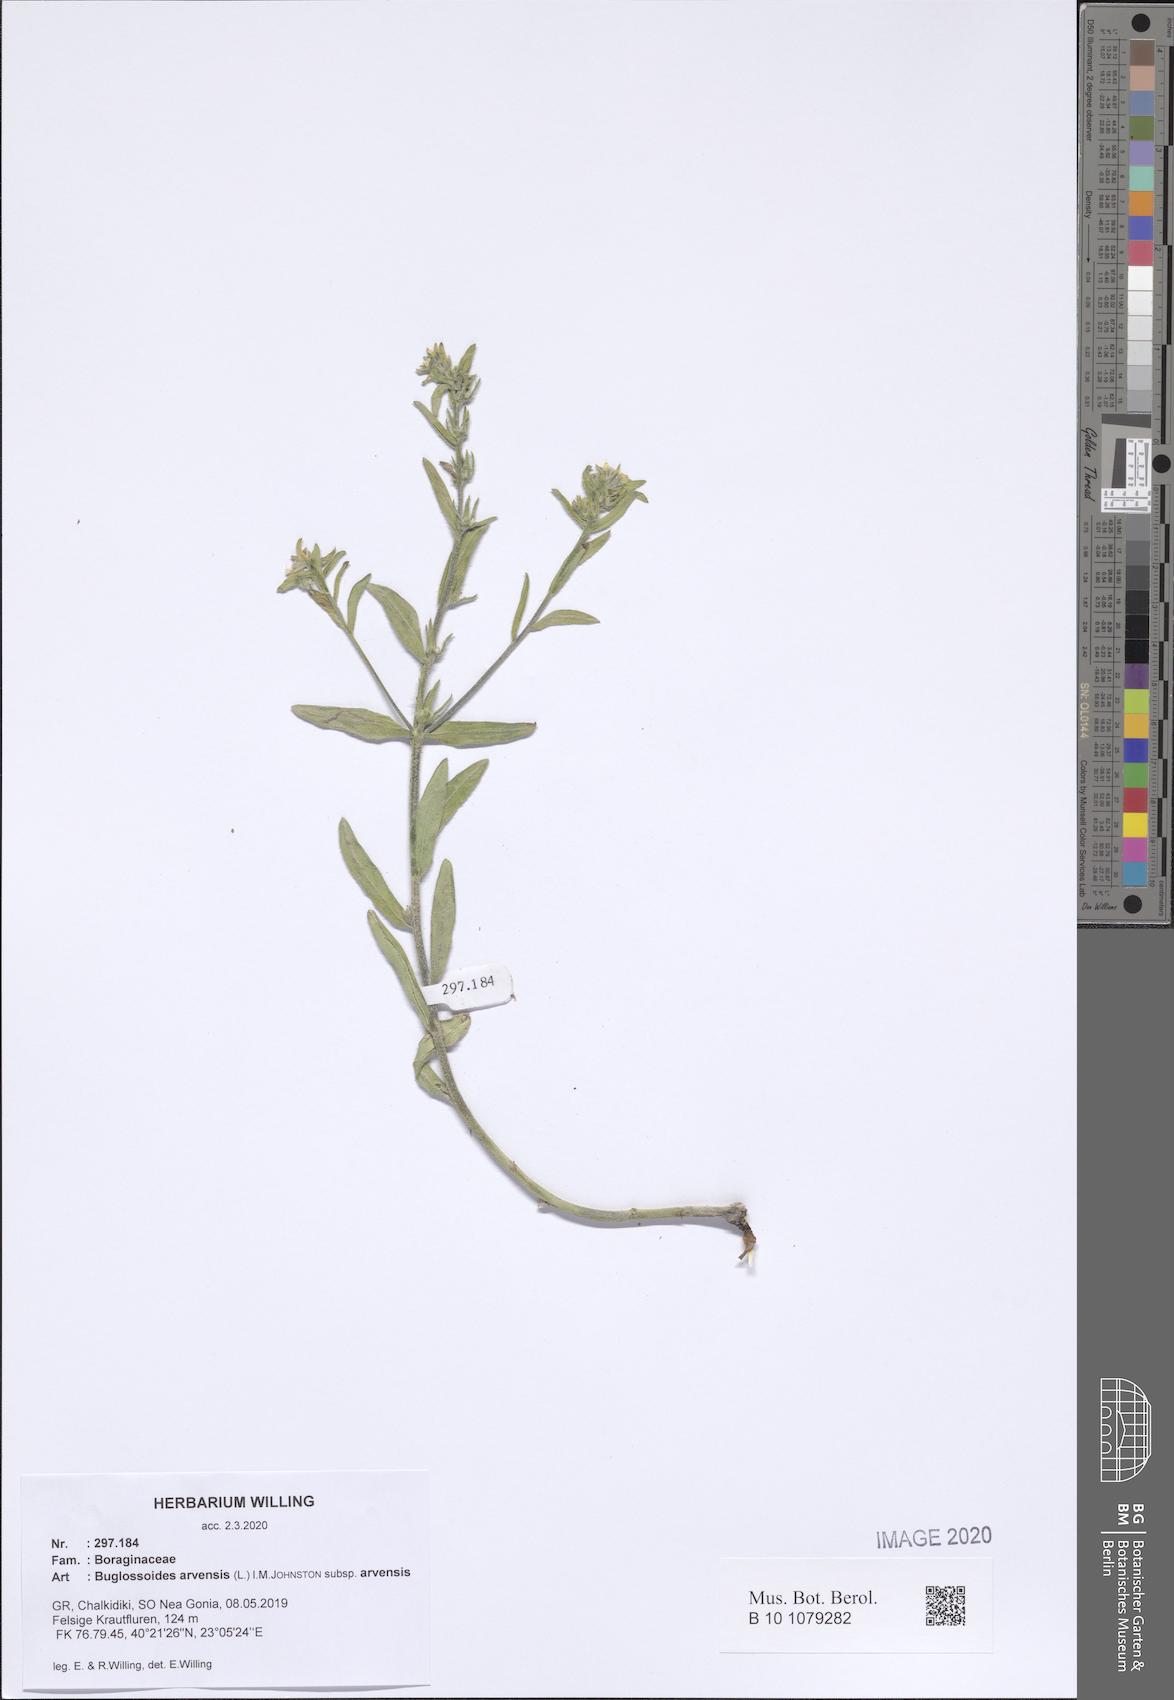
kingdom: Plantae
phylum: Tracheophyta
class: Magnoliopsida
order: Boraginales
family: Boraginaceae
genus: Buglossoides
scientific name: Buglossoides arvensis
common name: Corn gromwell
